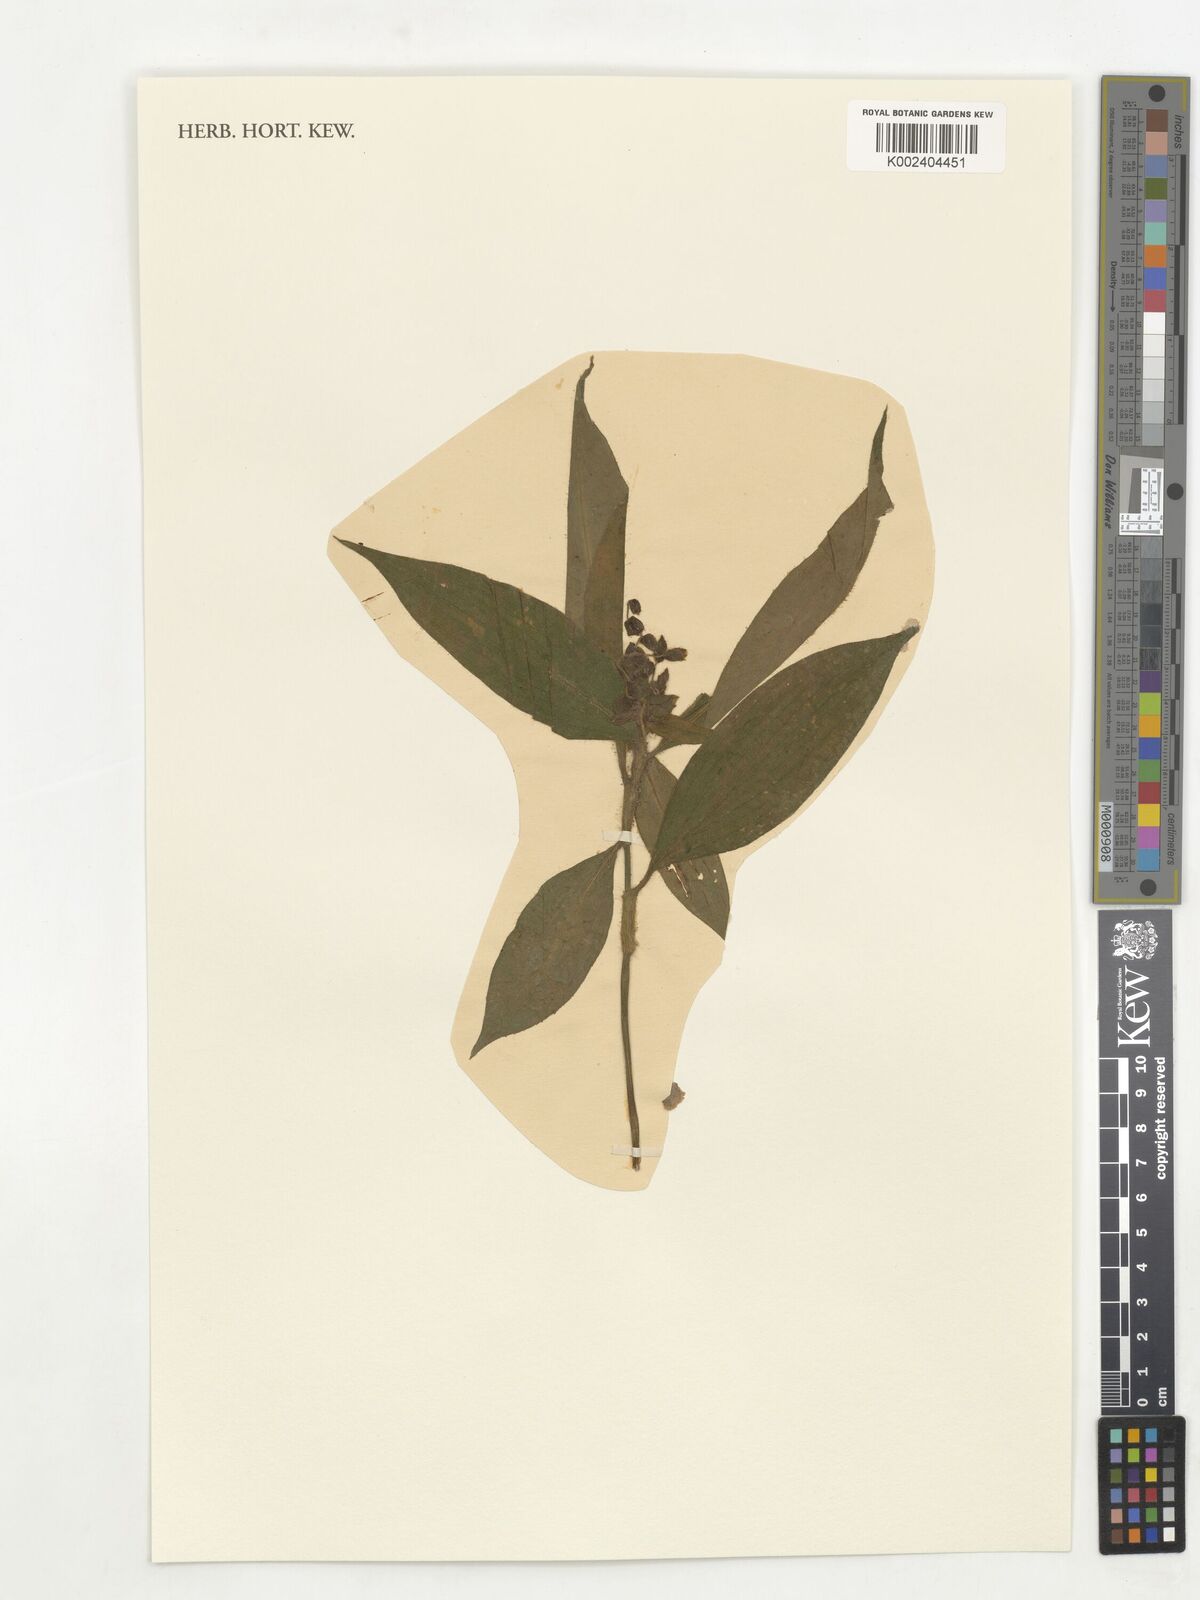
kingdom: Plantae
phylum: Tracheophyta
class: Liliopsida
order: Commelinales
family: Commelinaceae
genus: Polyspatha
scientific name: Polyspatha hirsuta
